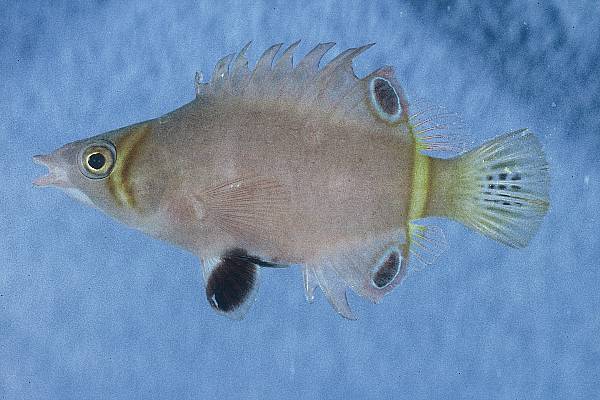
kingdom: Animalia
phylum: Chordata
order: Perciformes
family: Labridae
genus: Wetmorella
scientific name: Wetmorella nigropinnata
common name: Sharpnose wrasse
